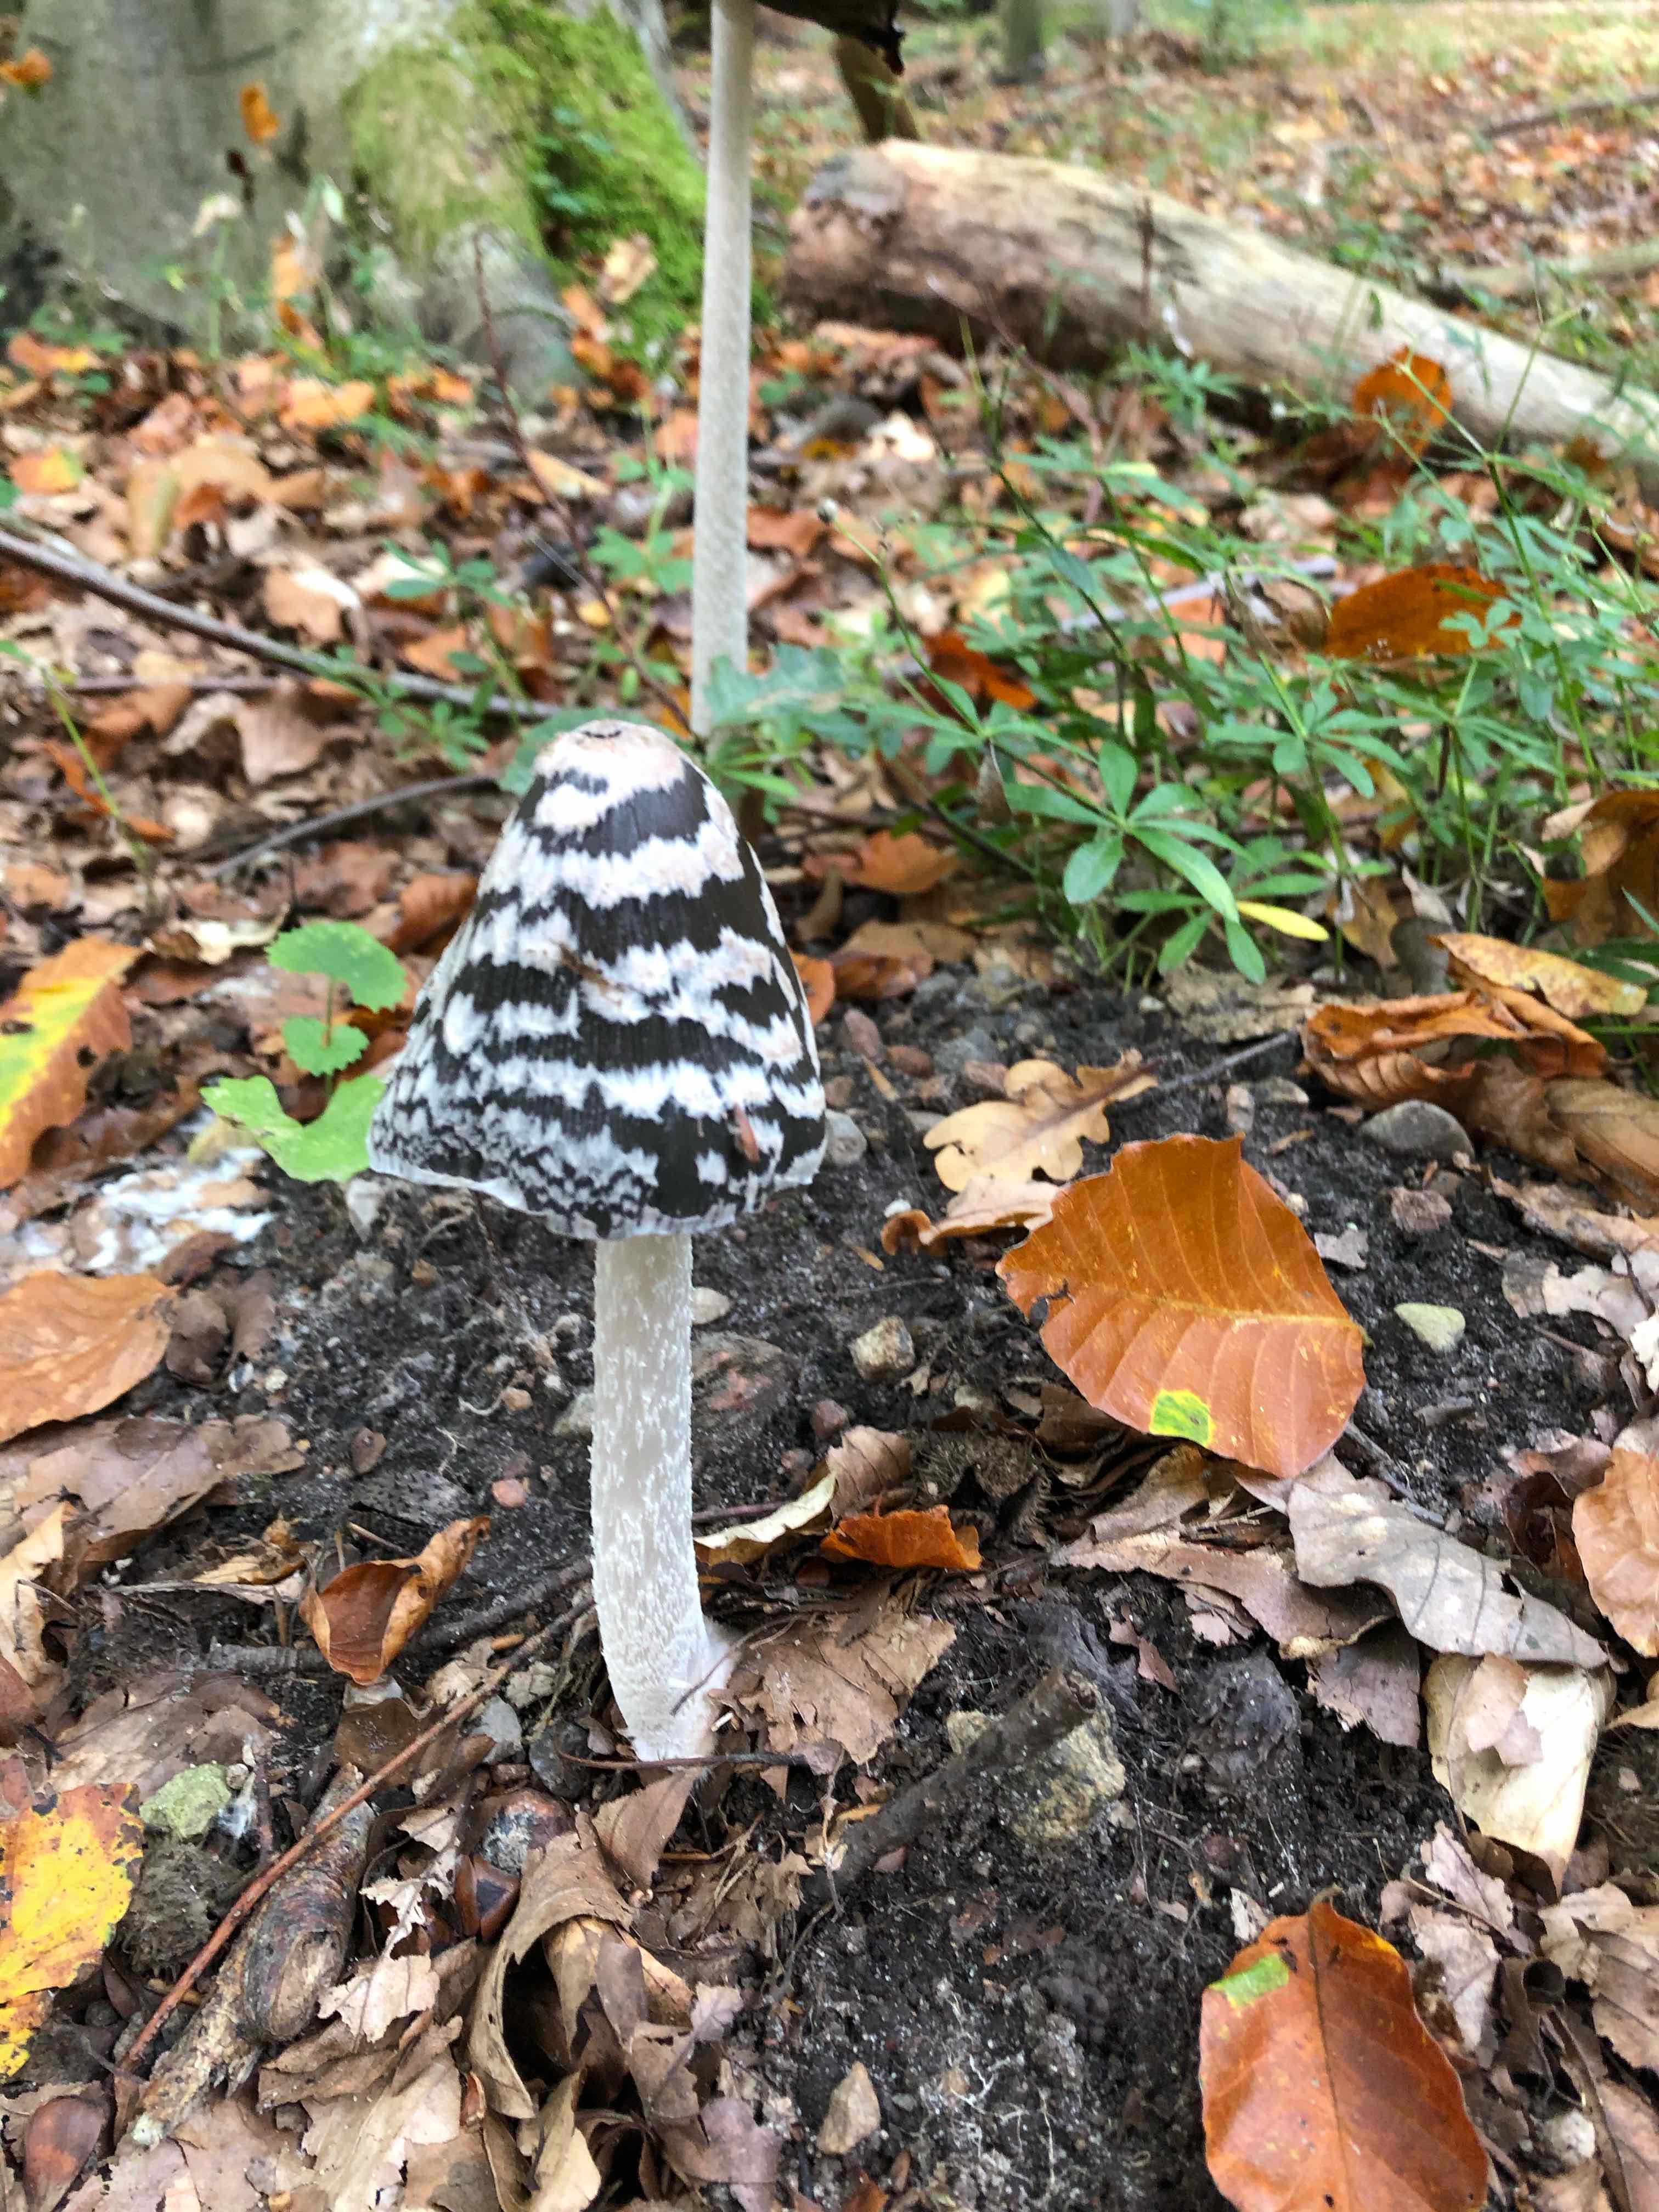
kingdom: Fungi
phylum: Basidiomycota
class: Agaricomycetes
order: Agaricales
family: Psathyrellaceae
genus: Coprinopsis
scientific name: Coprinopsis picacea
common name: skade-blækhat
